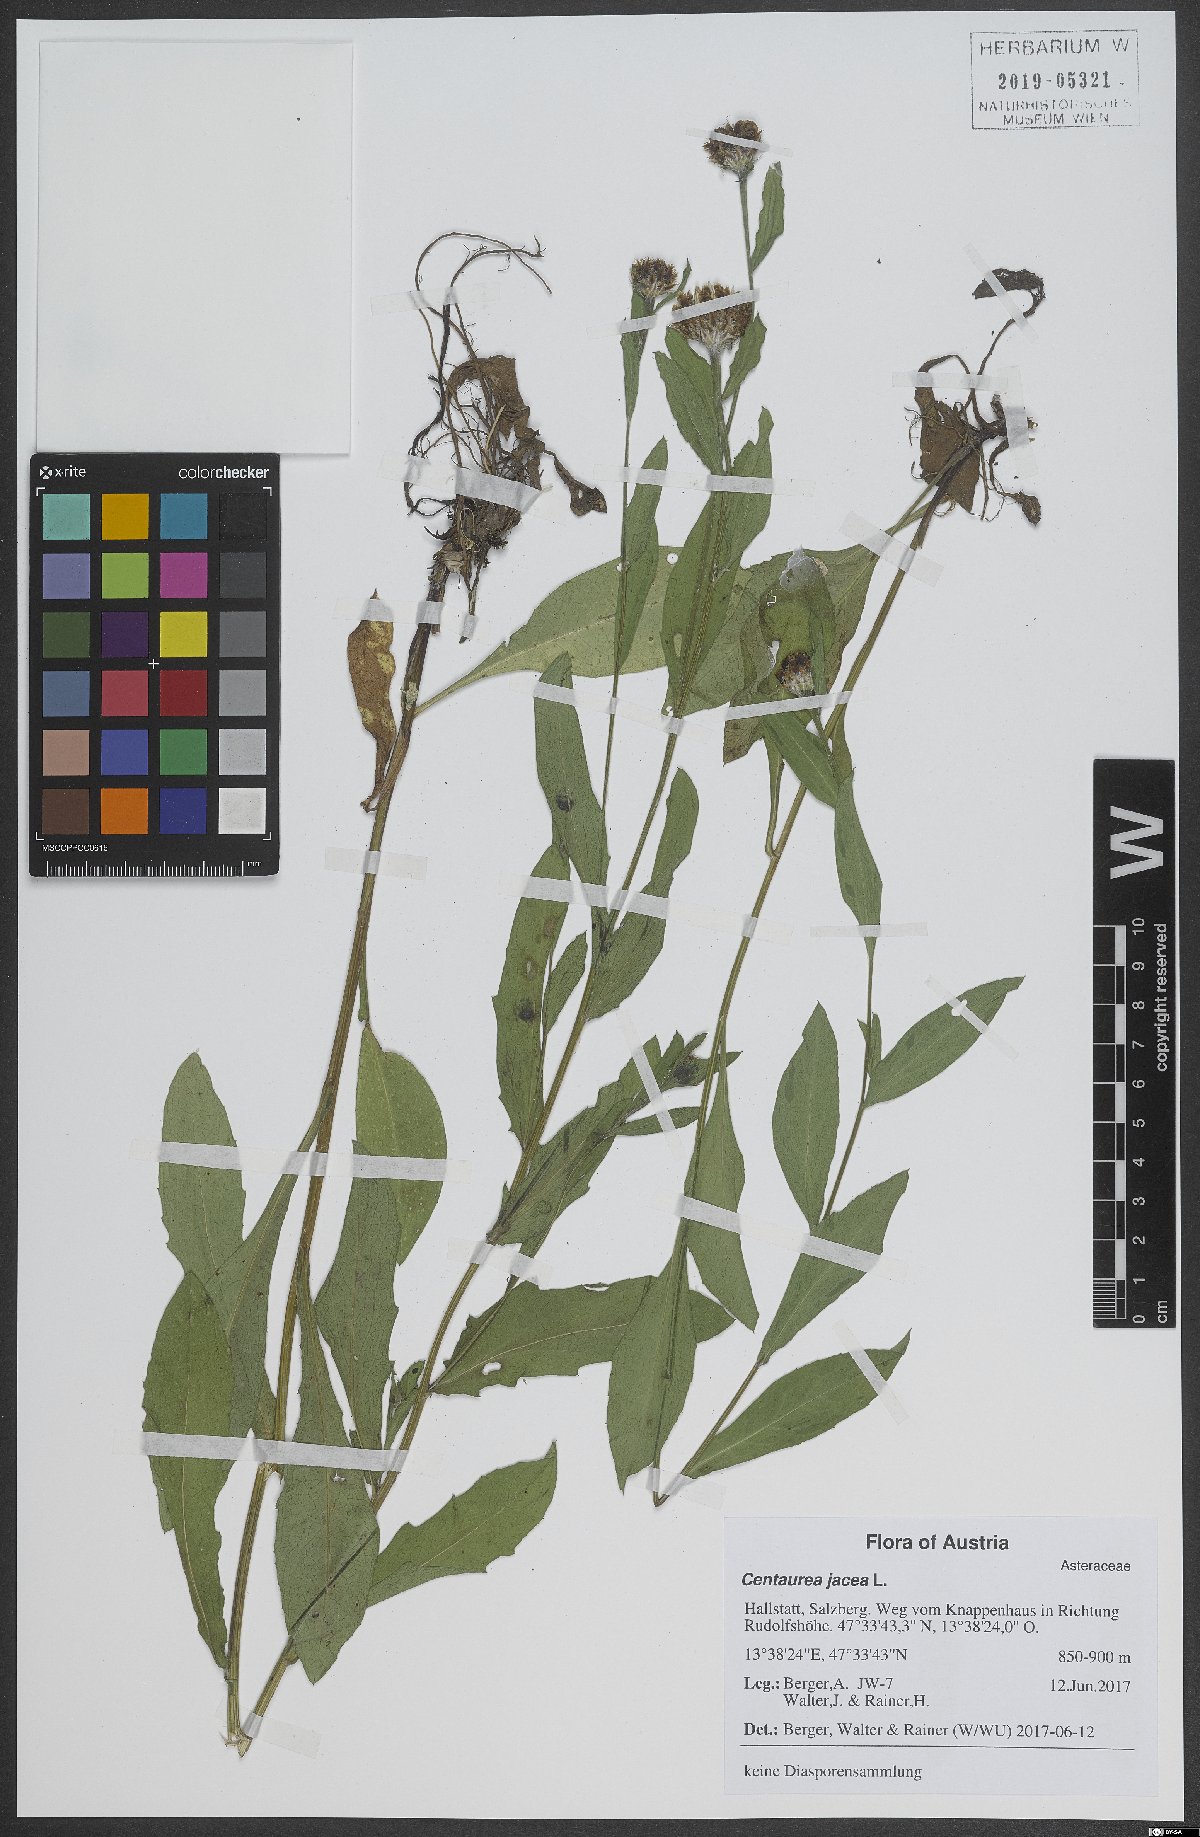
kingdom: Plantae
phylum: Tracheophyta
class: Magnoliopsida
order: Asterales
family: Asteraceae
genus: Centaurea
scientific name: Centaurea jacea
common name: Brown knapweed
